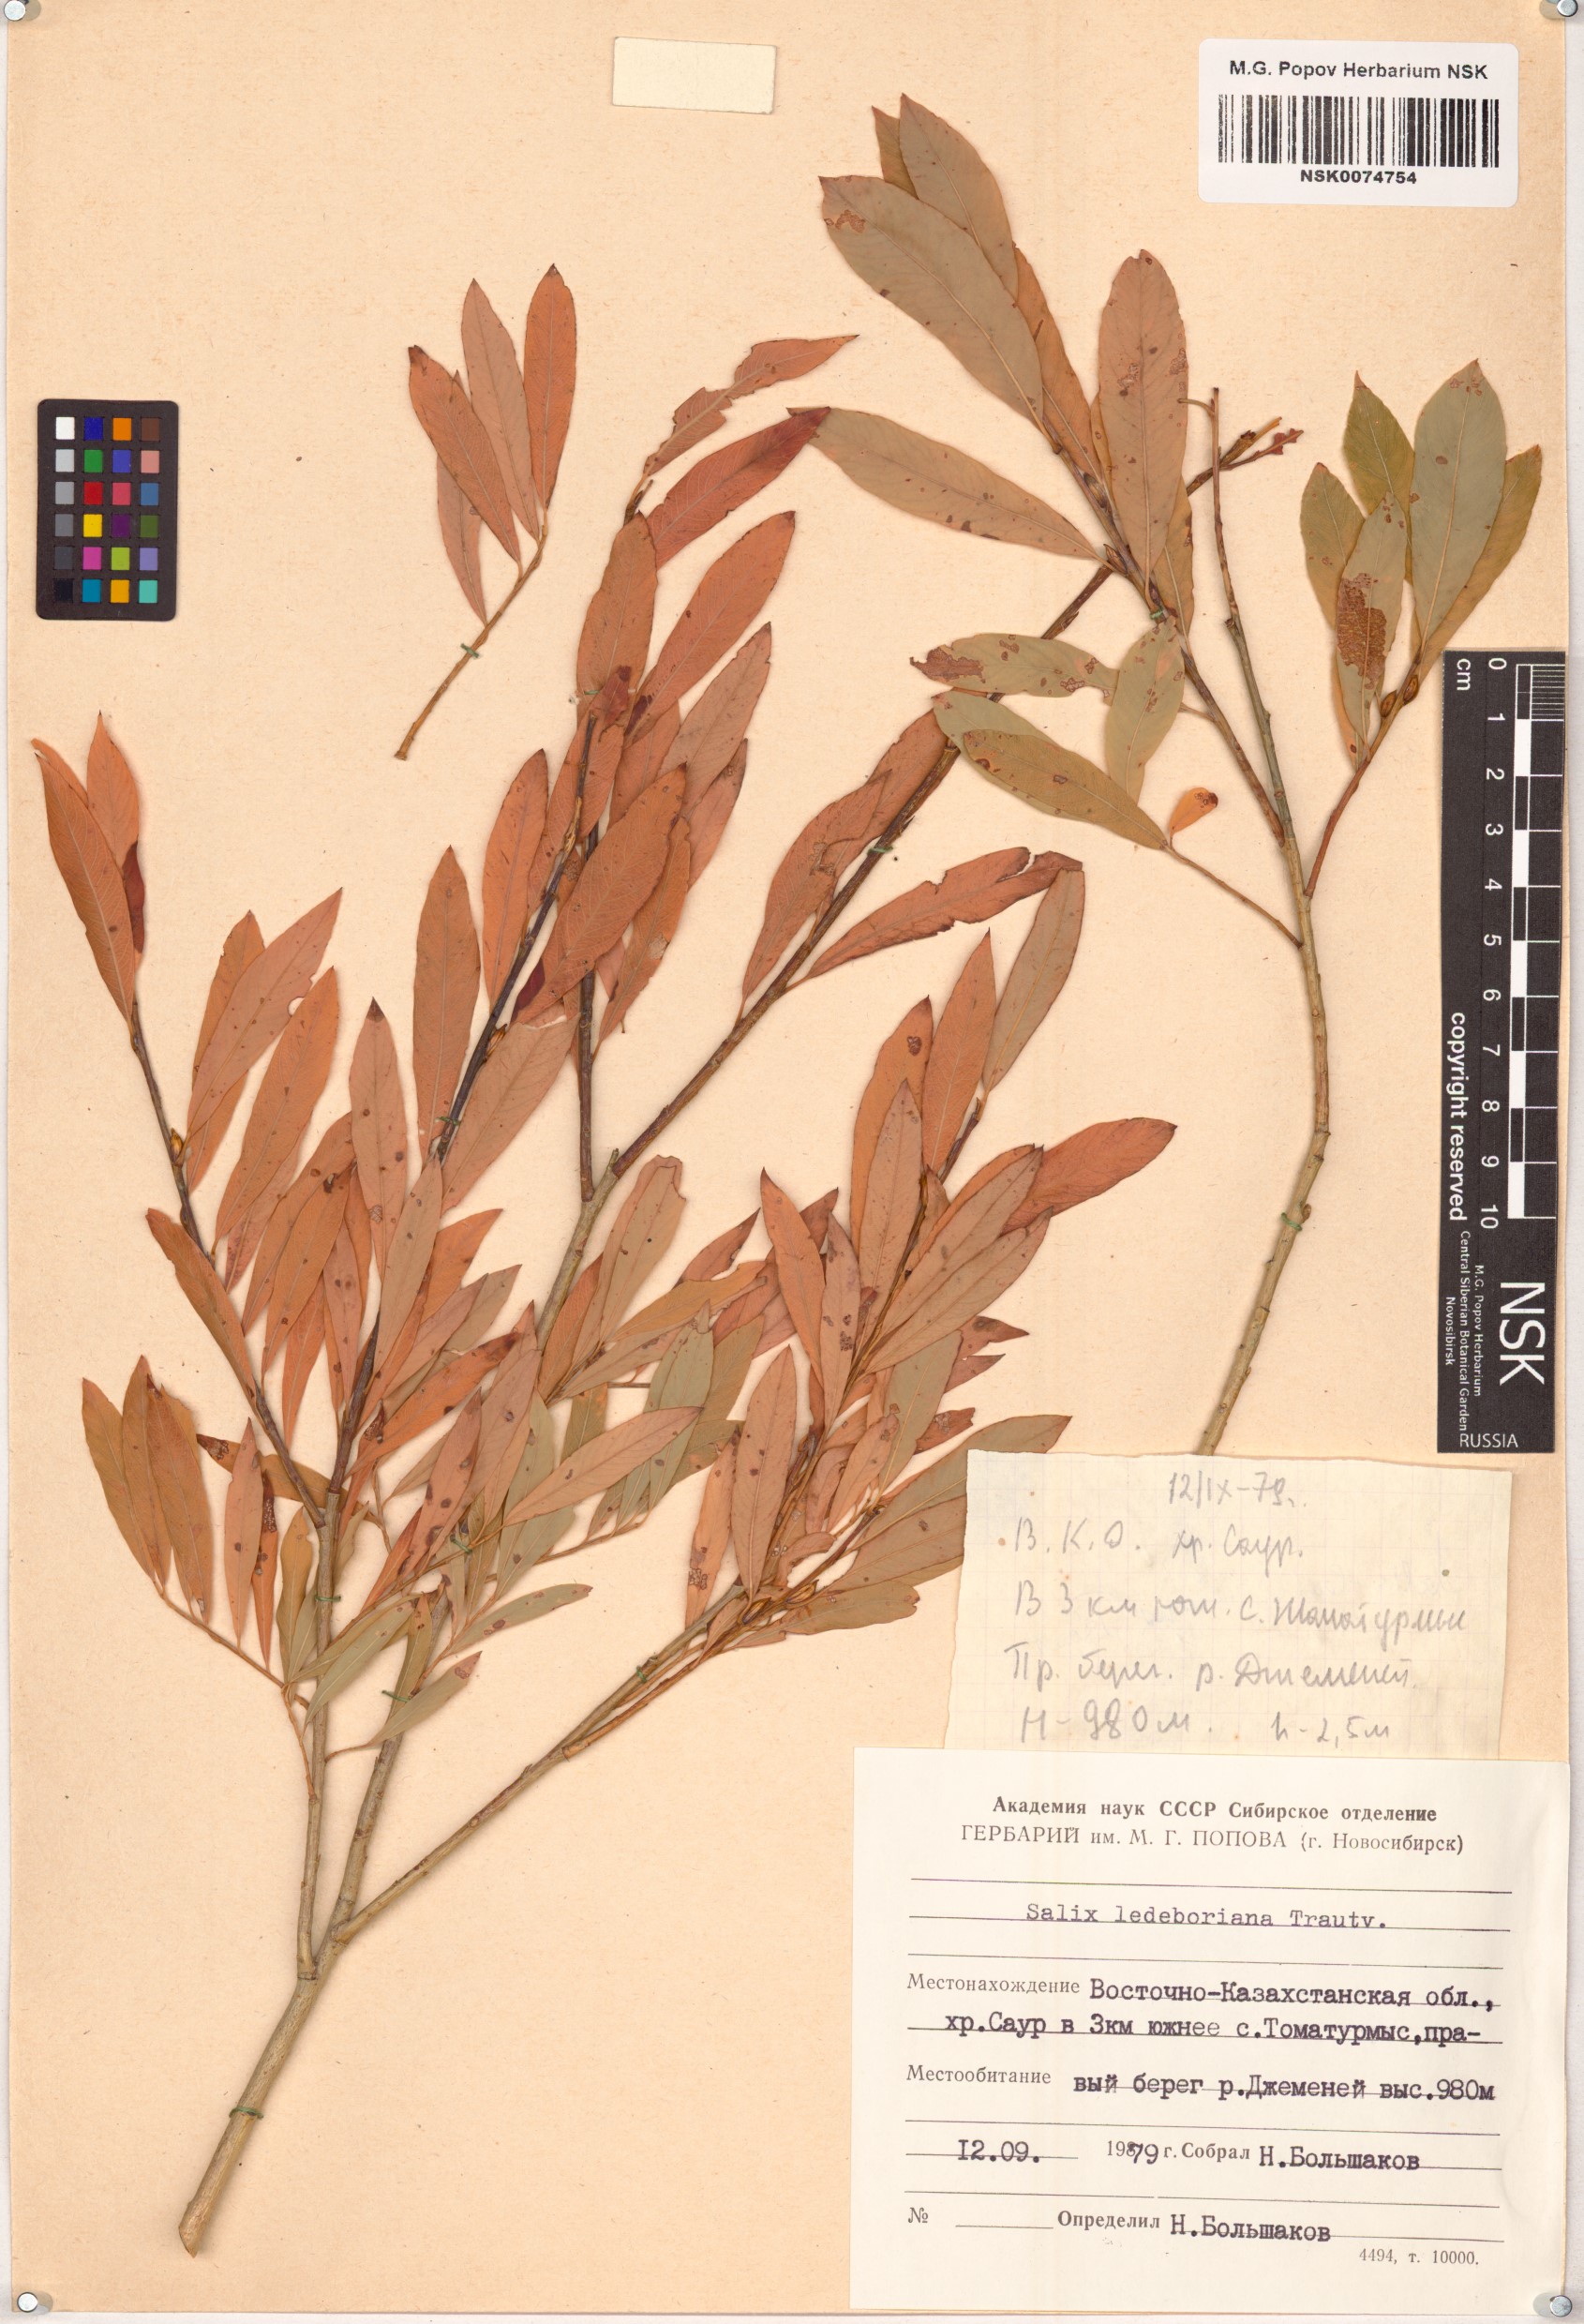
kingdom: Plantae
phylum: Tracheophyta
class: Magnoliopsida
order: Malpighiales
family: Salicaceae
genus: Salix
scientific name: Salix ledebouriana
